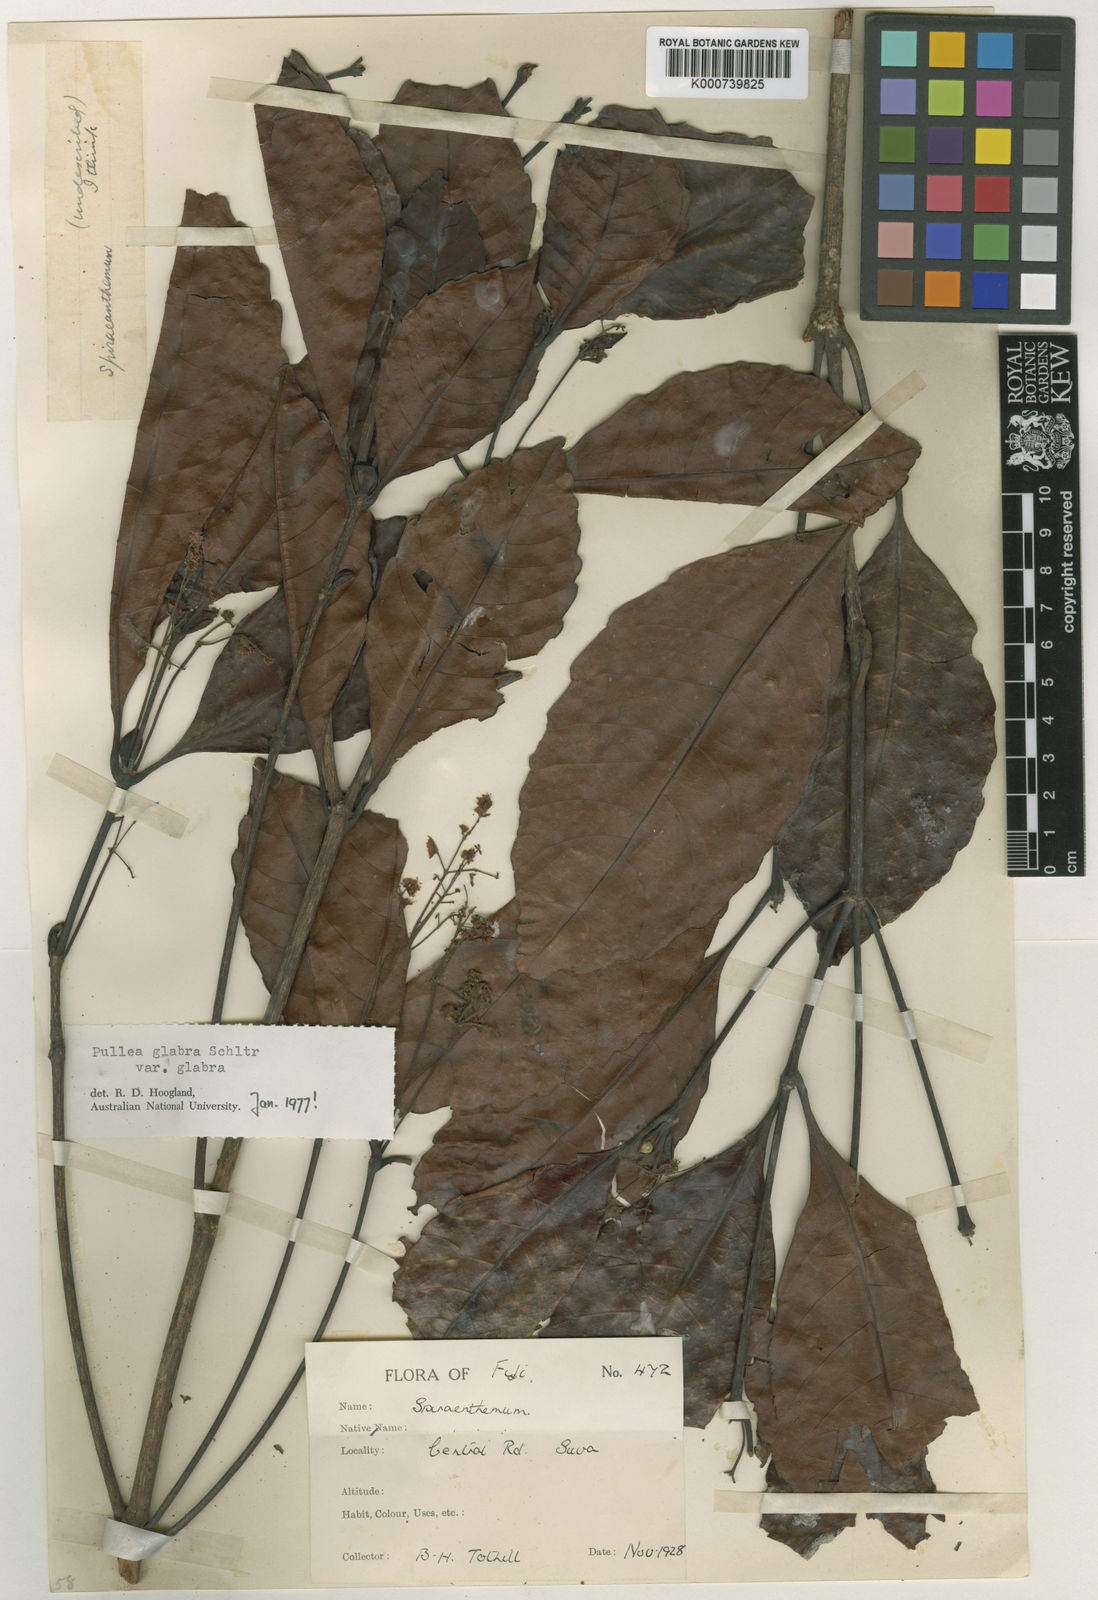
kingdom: Plantae
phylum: Tracheophyta
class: Magnoliopsida
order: Oxalidales
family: Cunoniaceae
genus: Pullea
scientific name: Pullea glabra
